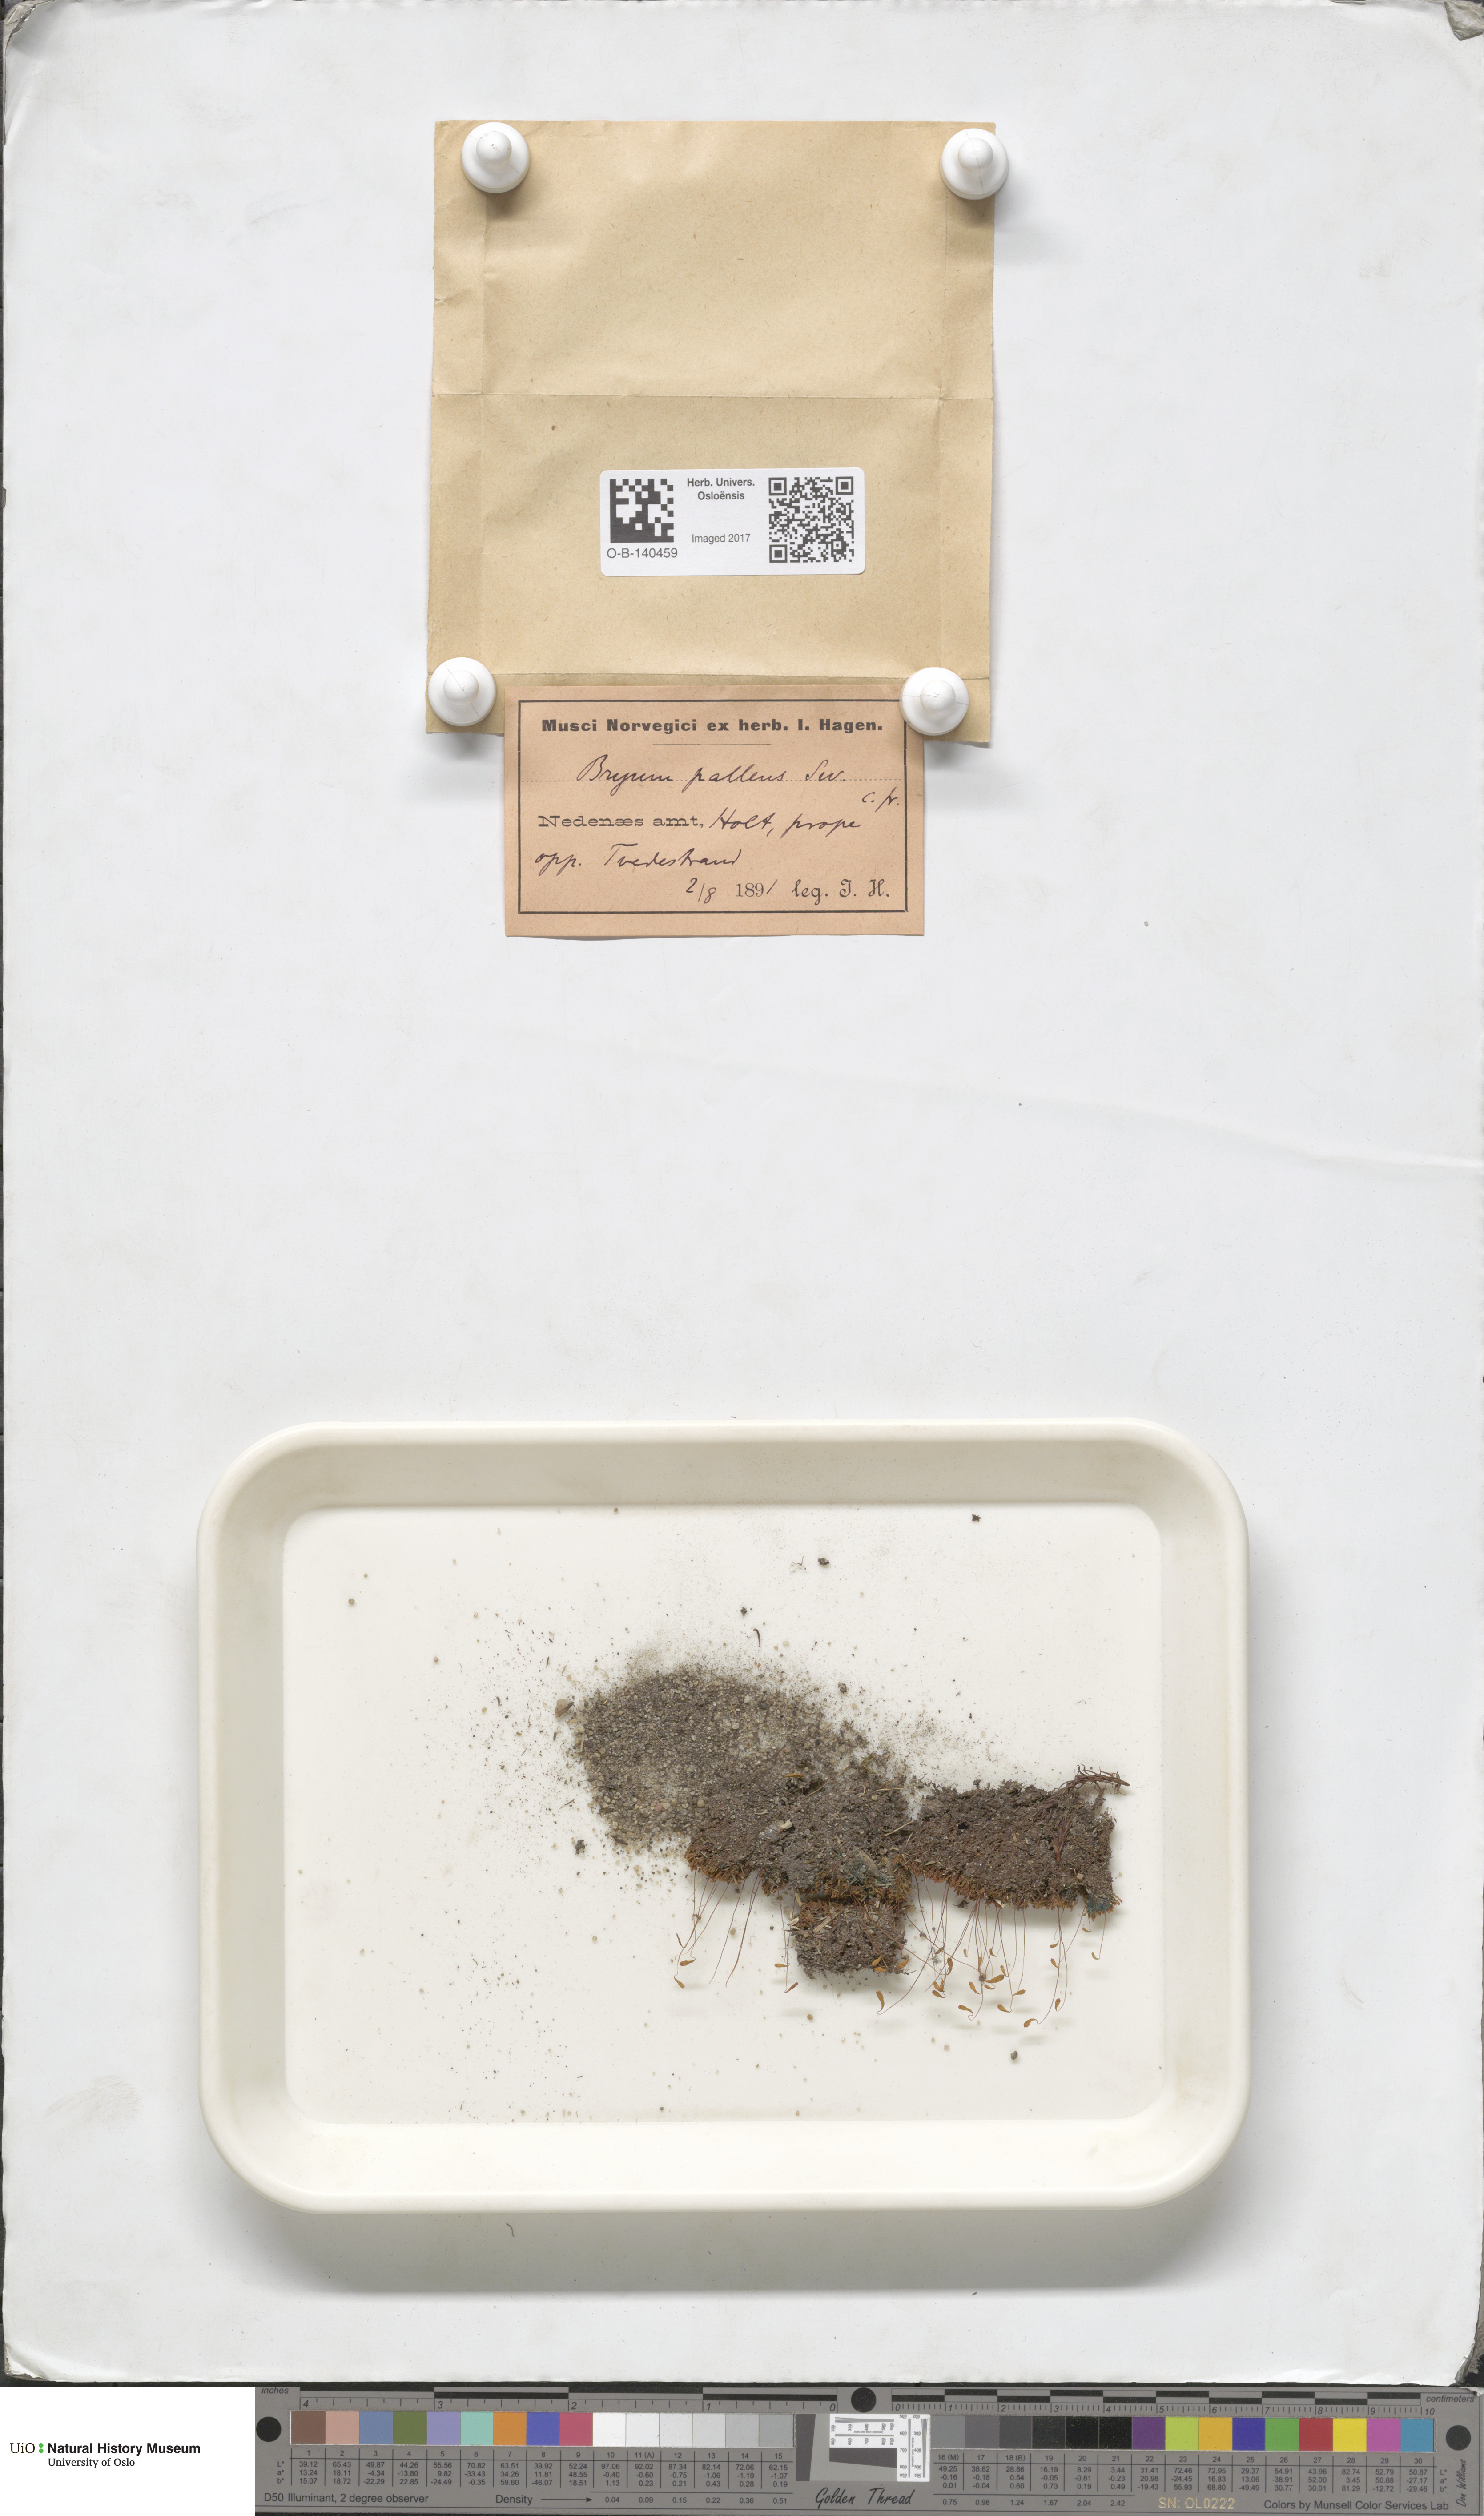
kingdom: Plantae
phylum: Bryophyta
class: Bryopsida
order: Bryales
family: Bryaceae
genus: Ptychostomum
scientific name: Ptychostomum pallens
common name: Pale thread-moss
